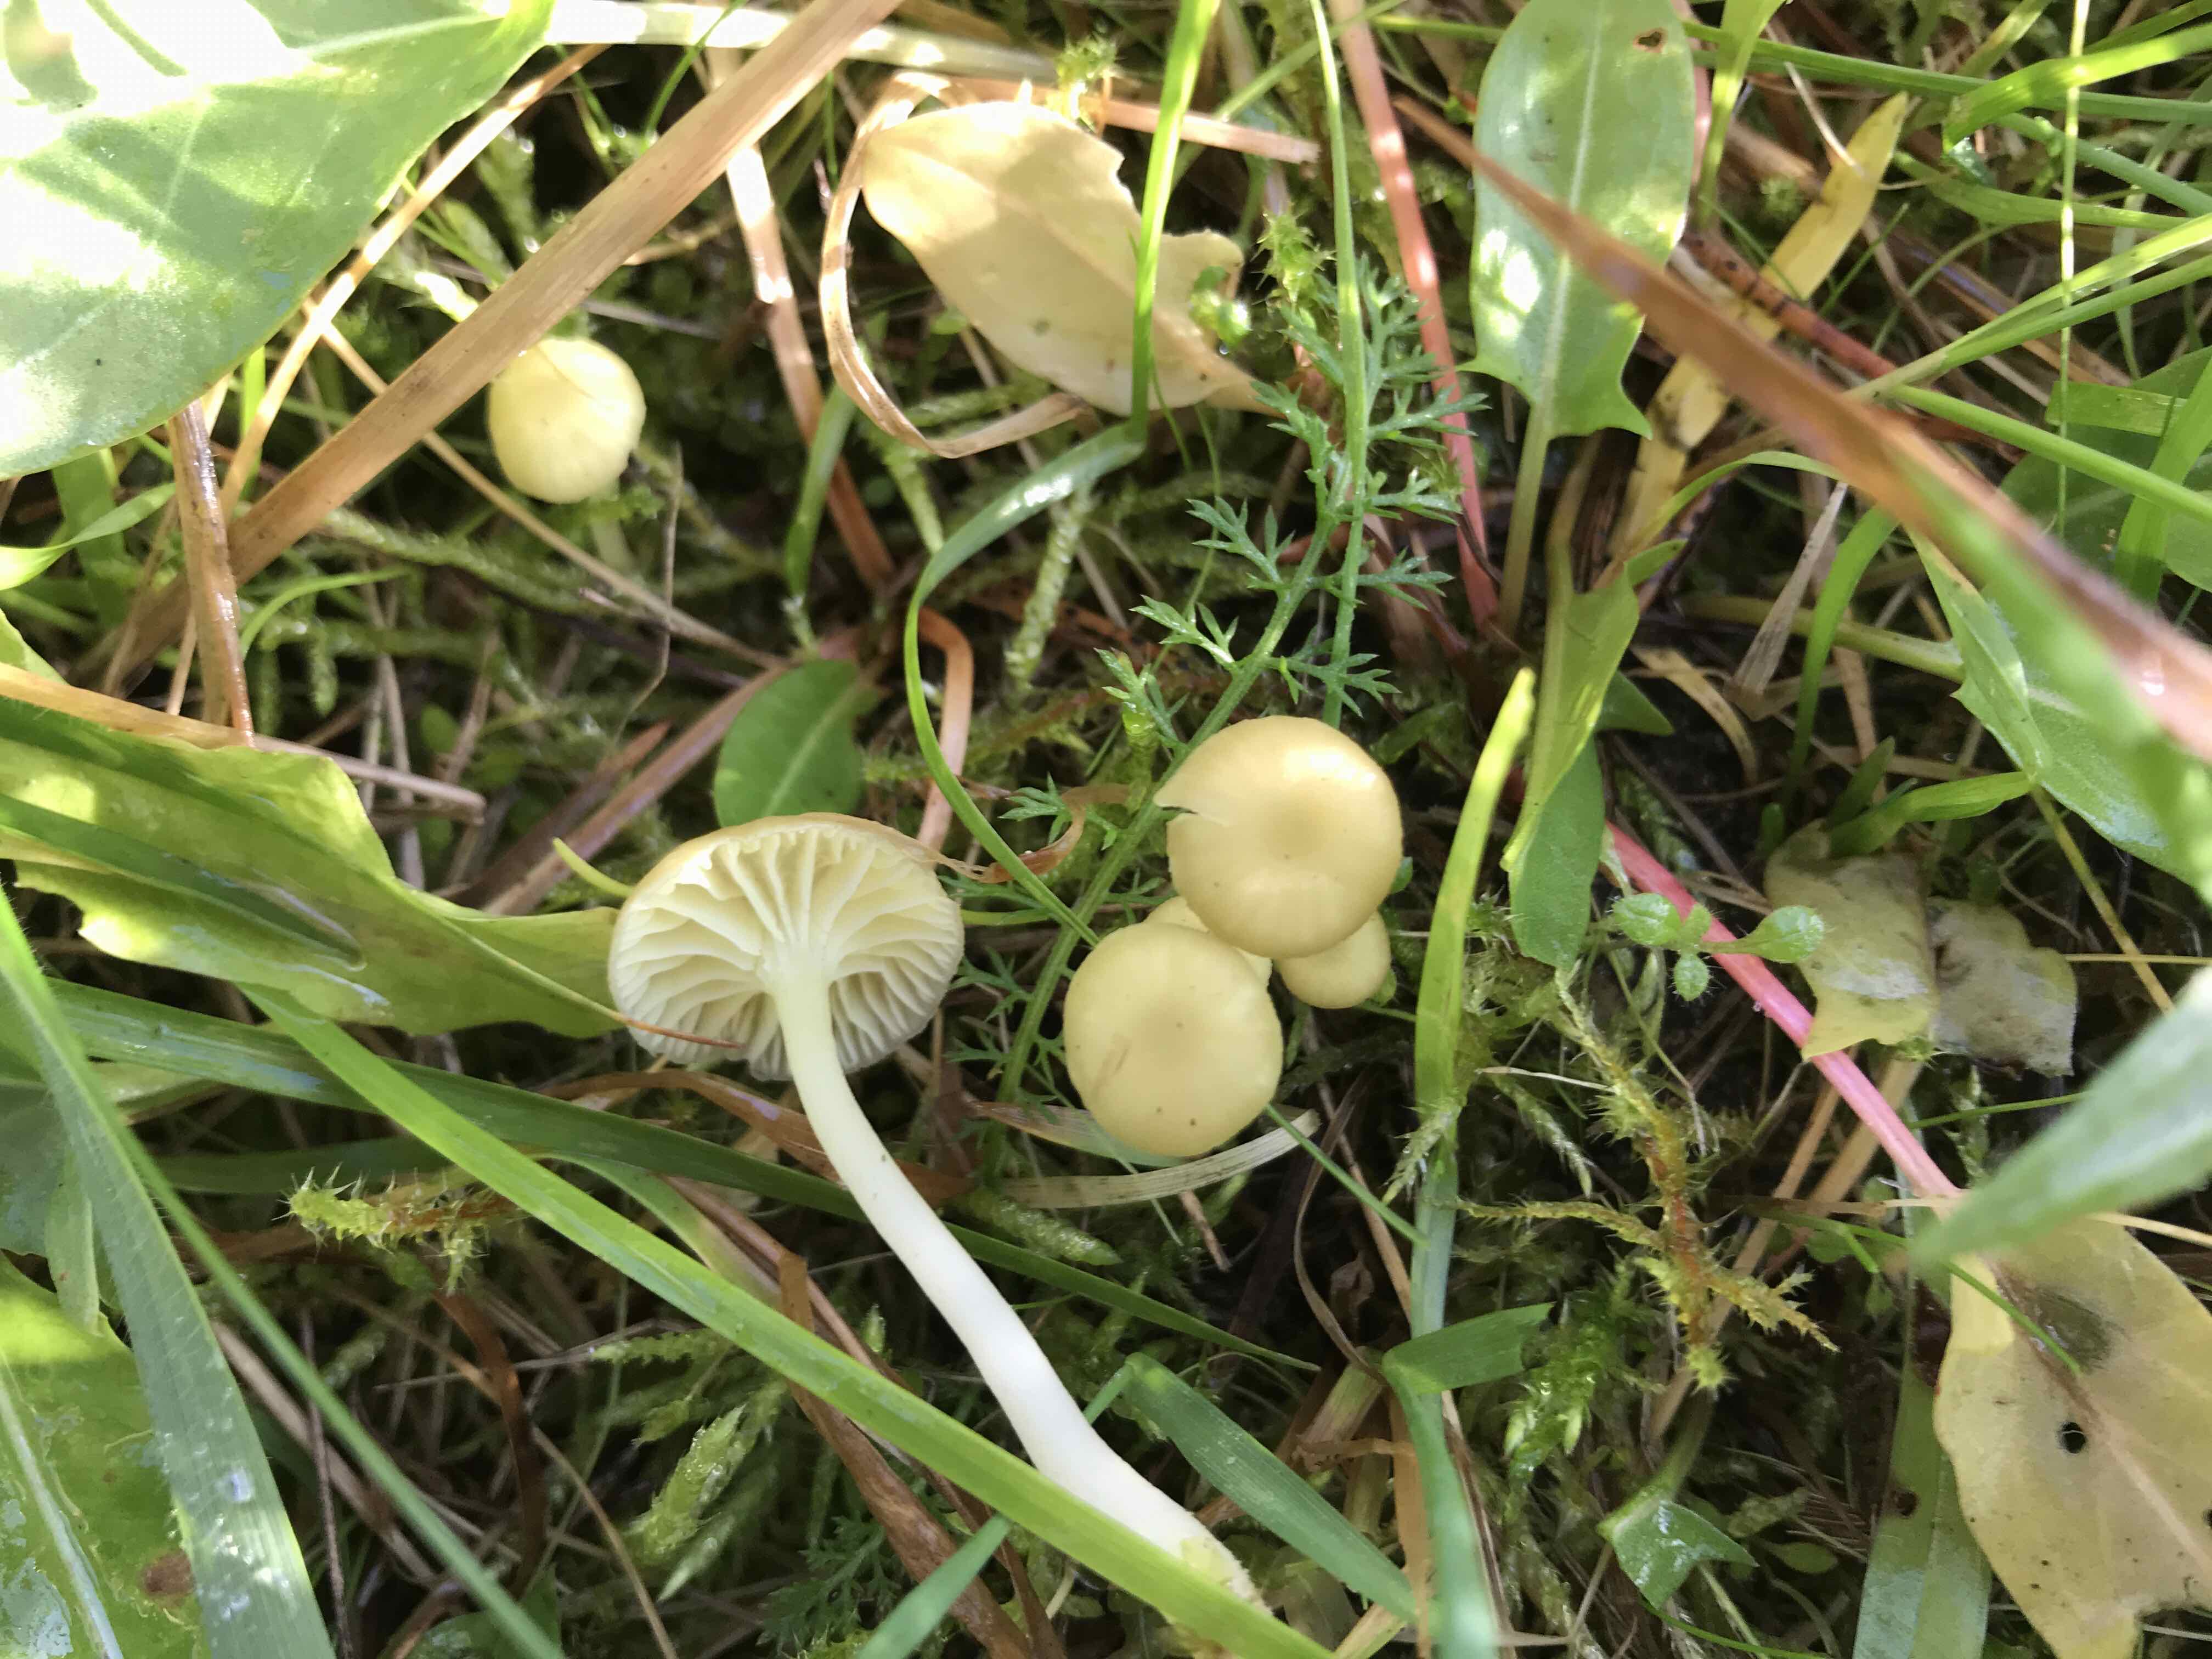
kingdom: Fungi
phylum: Basidiomycota
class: Agaricomycetes
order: Agaricales
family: Hygrophoraceae
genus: Chrysomphalina
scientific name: Chrysomphalina grossula
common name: stød-gyldenblad
